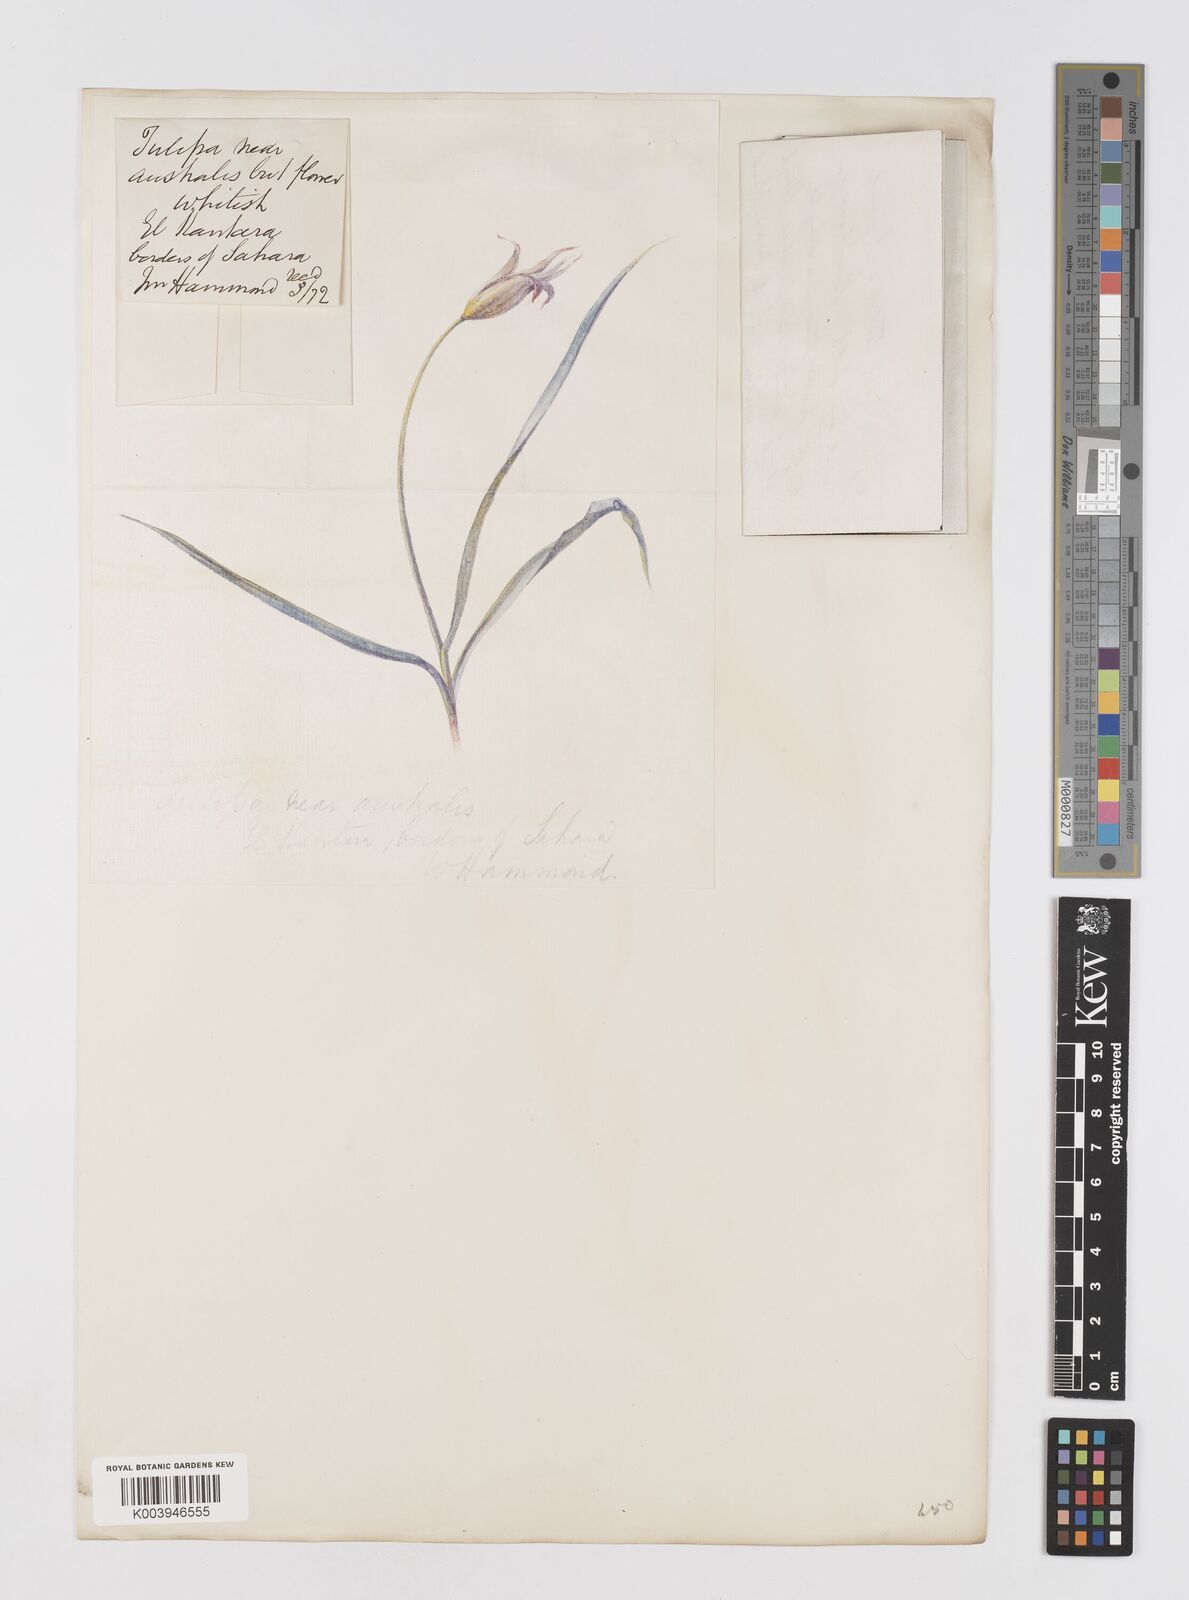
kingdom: Plantae
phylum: Tracheophyta
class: Liliopsida
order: Liliales
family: Liliaceae
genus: Tulipa
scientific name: Tulipa sylvestris
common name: Wild tulip
